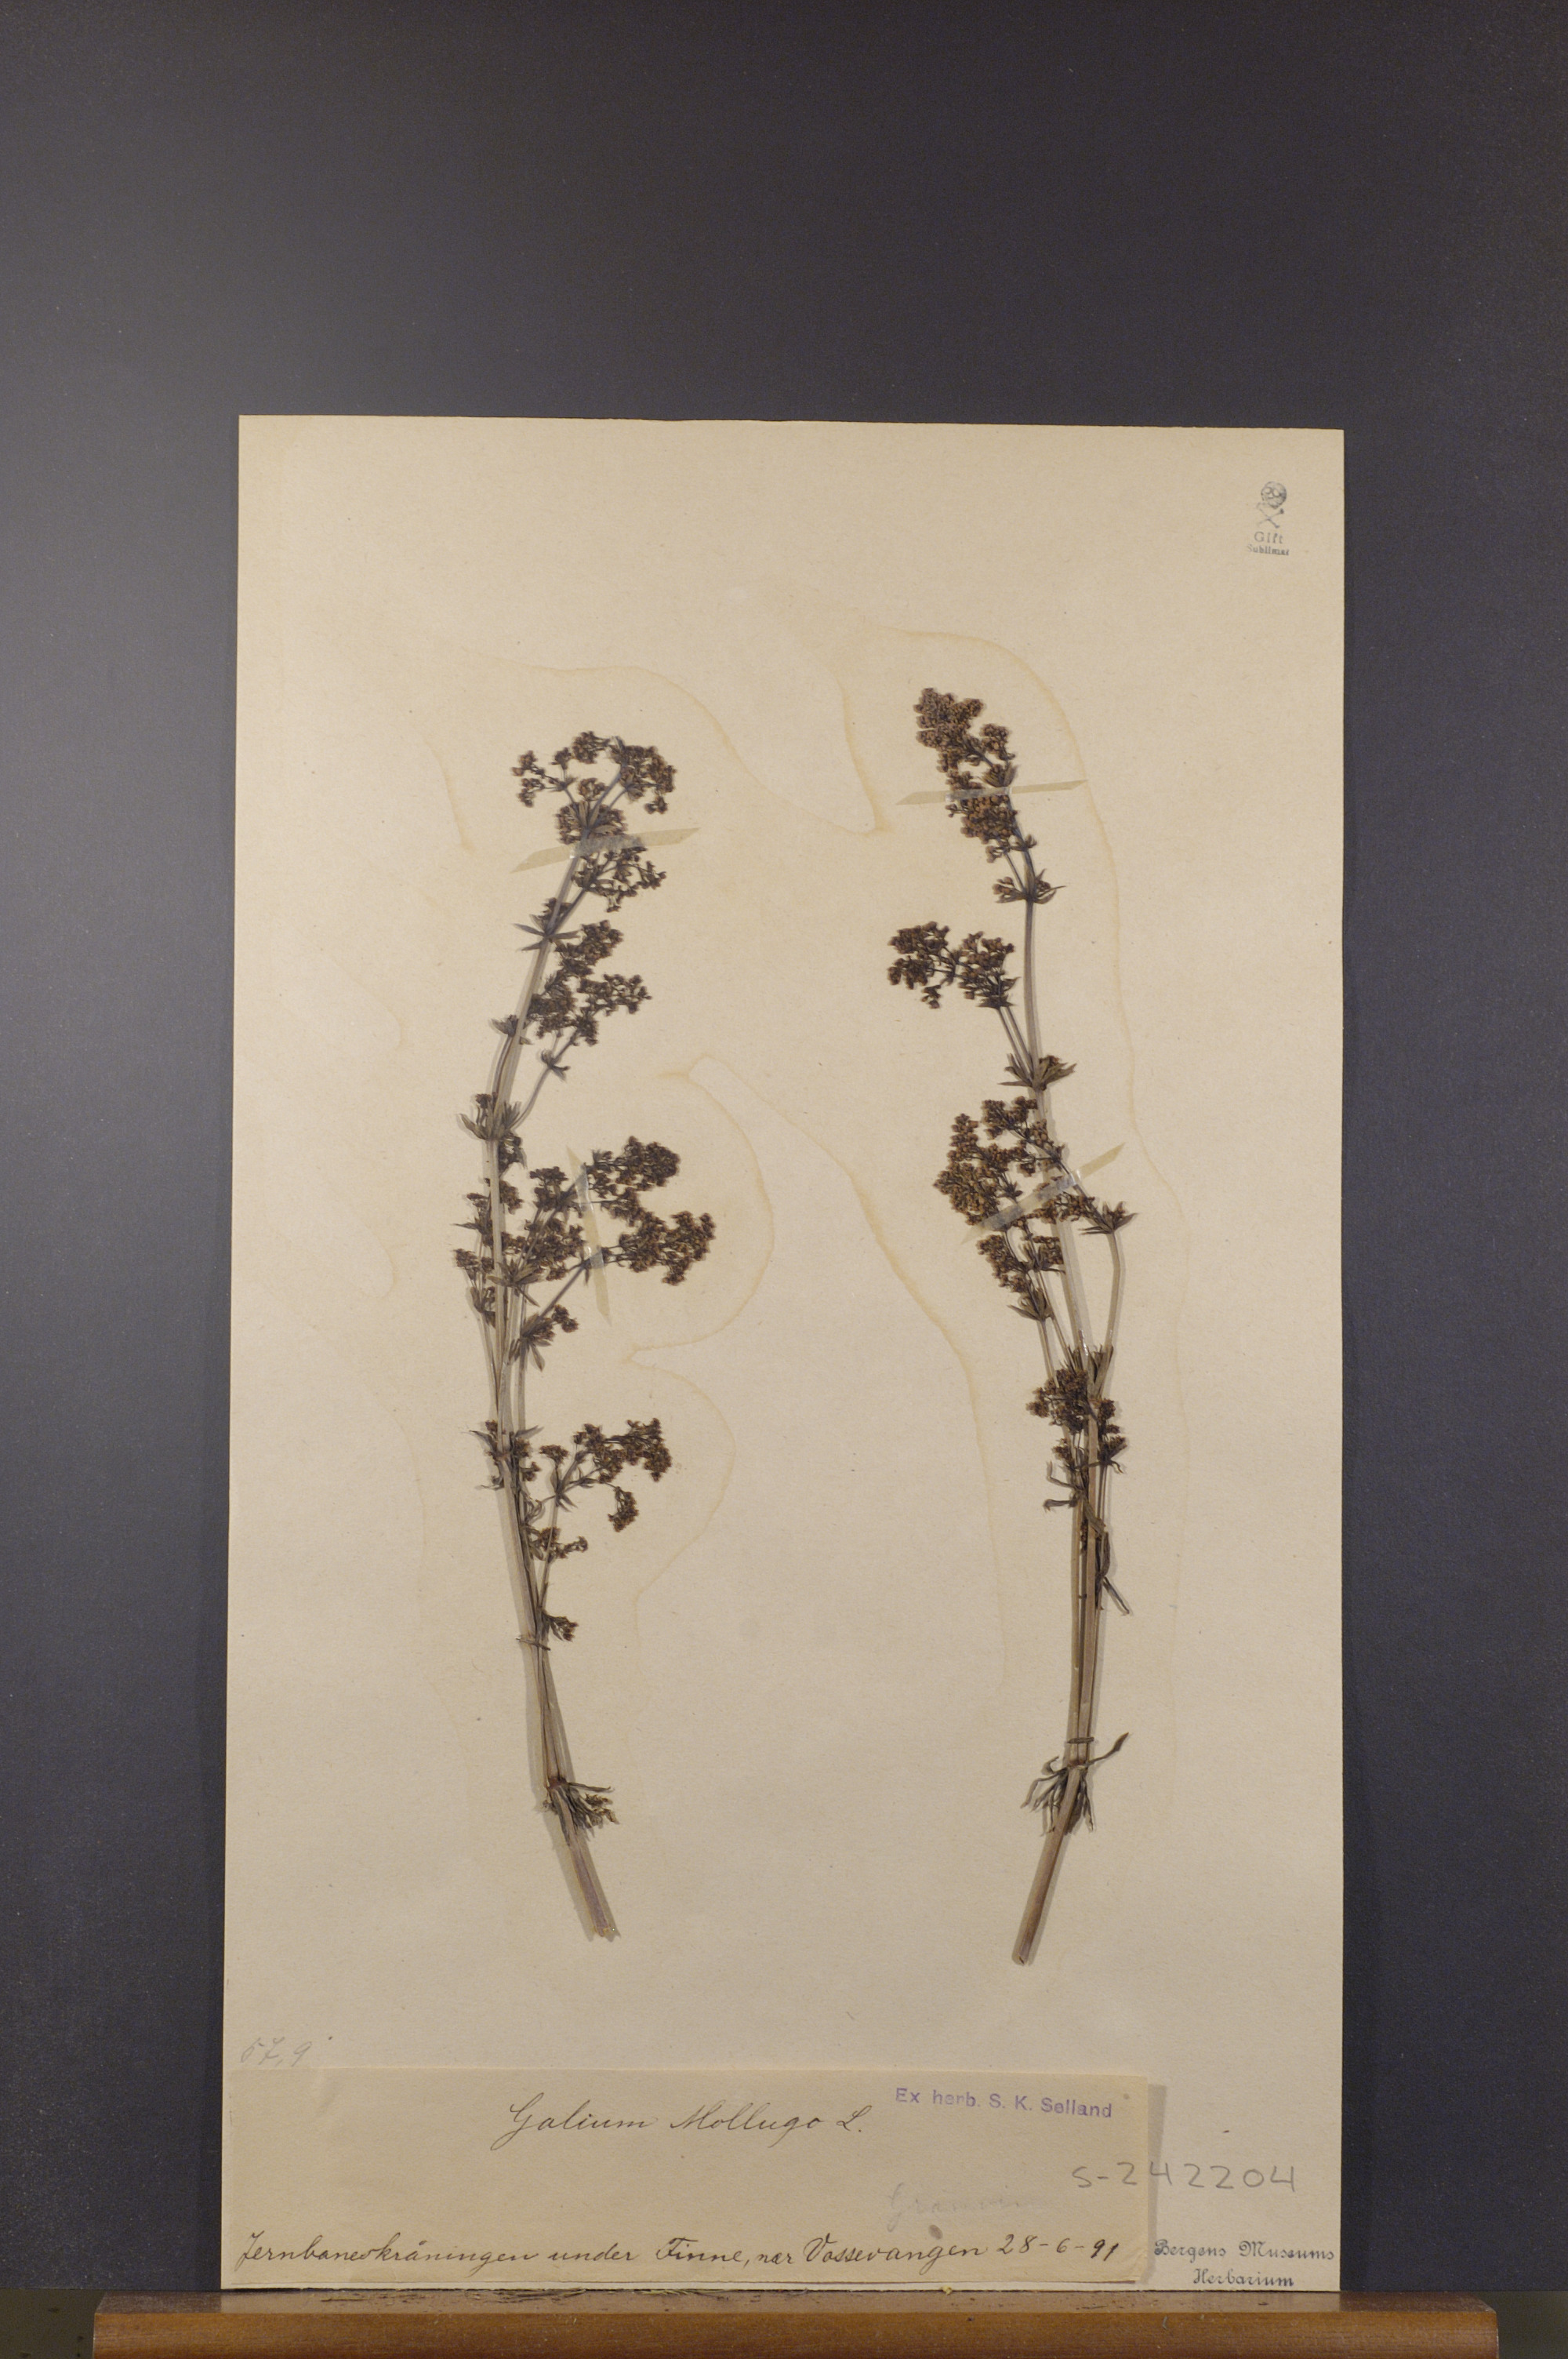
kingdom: Plantae
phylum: Tracheophyta
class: Magnoliopsida
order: Gentianales
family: Rubiaceae
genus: Galium
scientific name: Galium mollugo
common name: Hedge bedstraw
